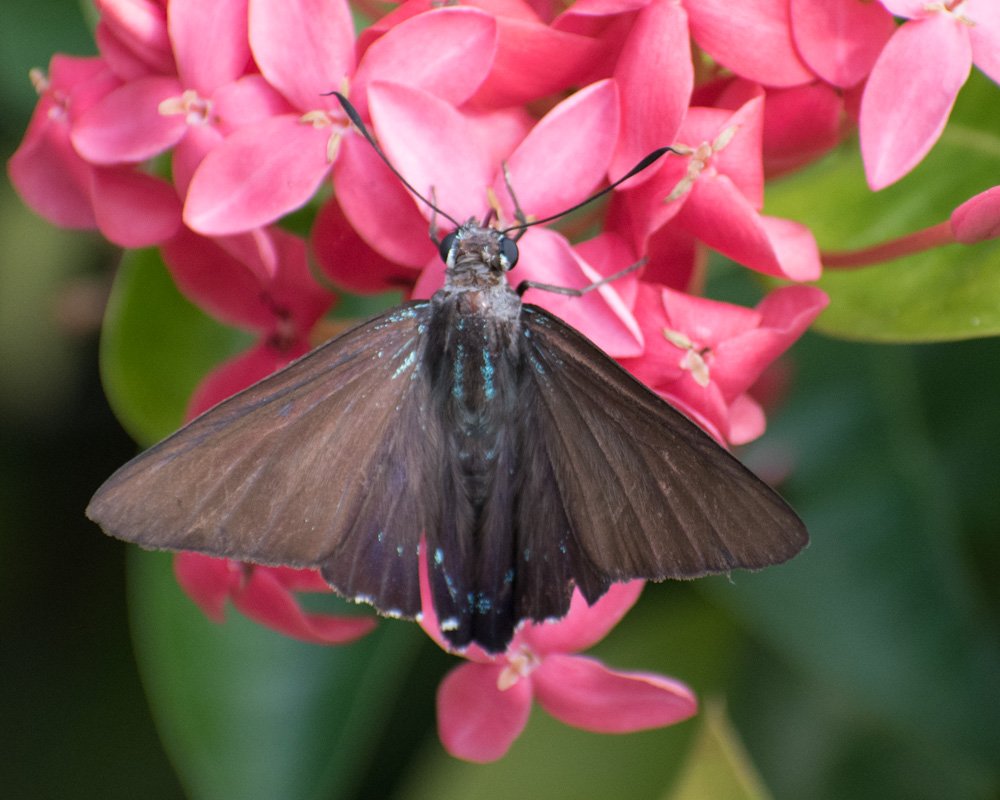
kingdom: Animalia
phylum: Arthropoda
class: Insecta
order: Lepidoptera
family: Hesperiidae
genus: Phocides
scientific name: Phocides pigmalion
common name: Mangrove Skipper
